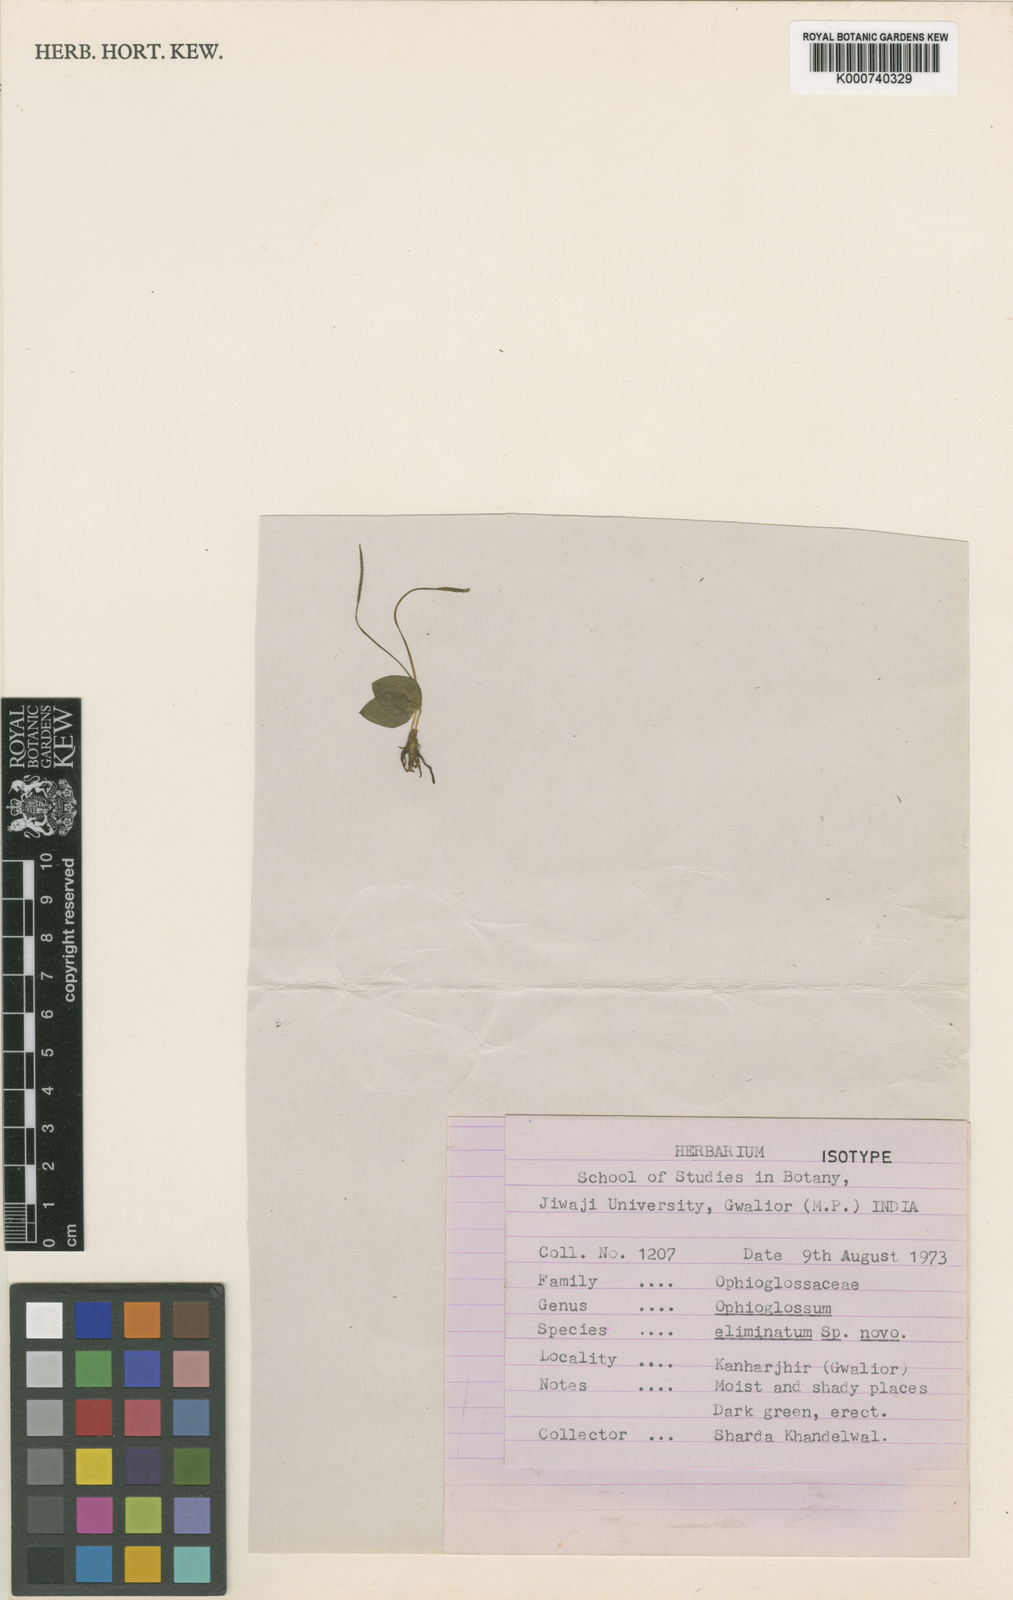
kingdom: Plantae
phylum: Tracheophyta
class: Polypodiopsida
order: Ophioglossales
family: Ophioglossaceae
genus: Ophioglossum
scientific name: Ophioglossum eliminatum
